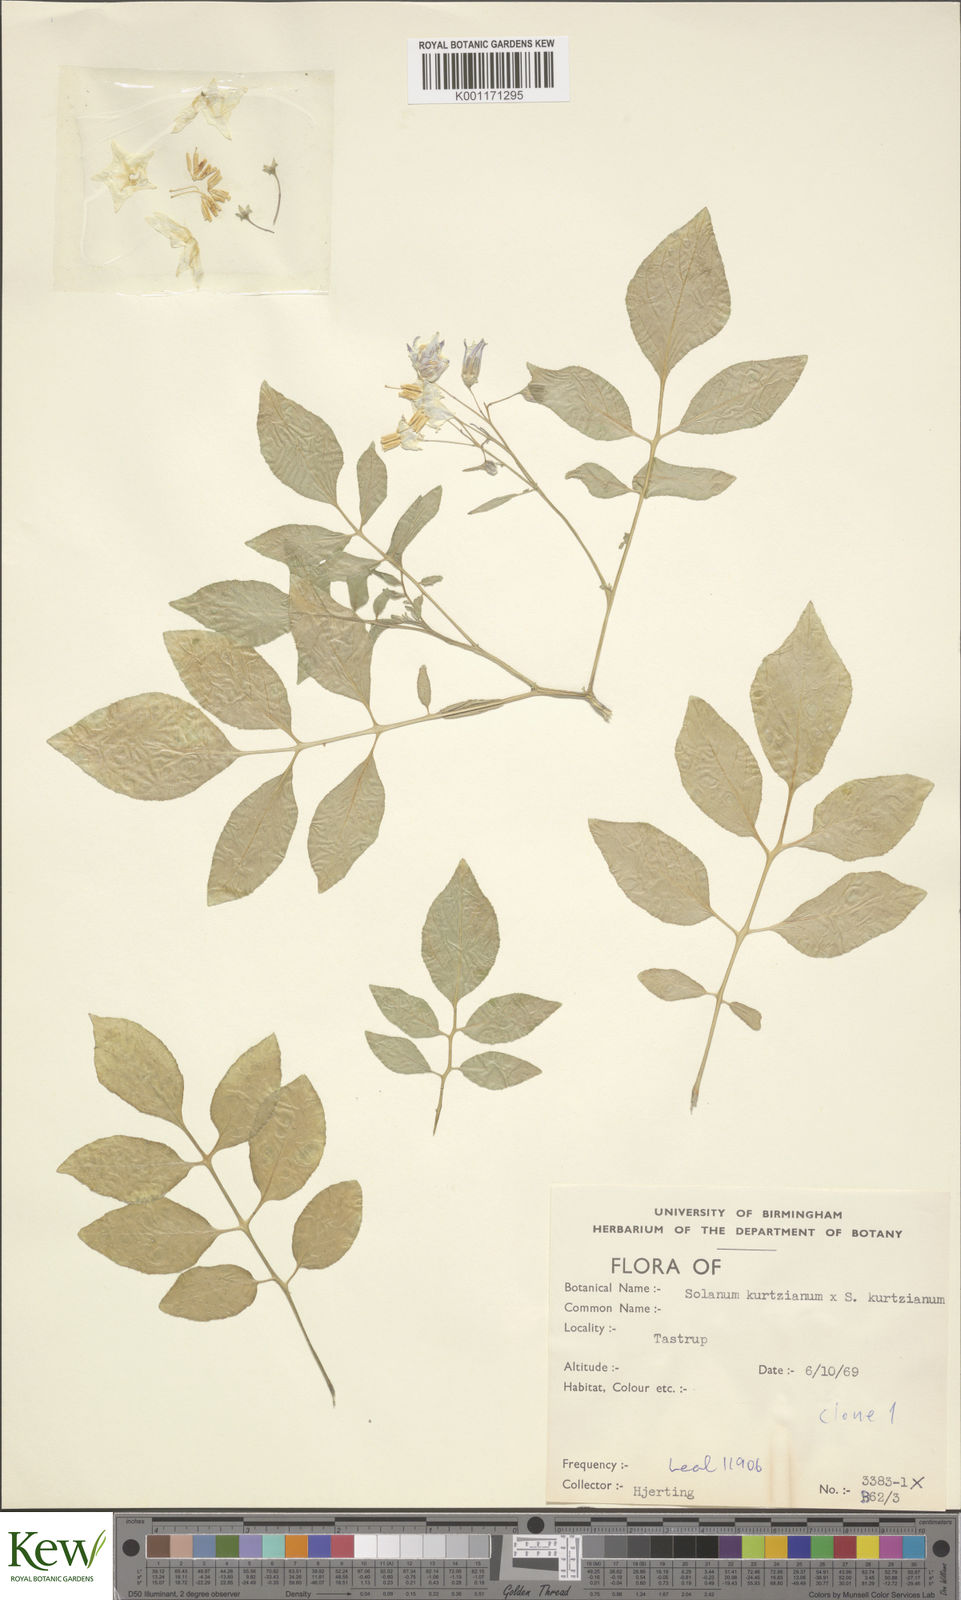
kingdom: Plantae
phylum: Tracheophyta
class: Magnoliopsida
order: Solanales
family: Solanaceae
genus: Solanum
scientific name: Solanum kurtzianum
